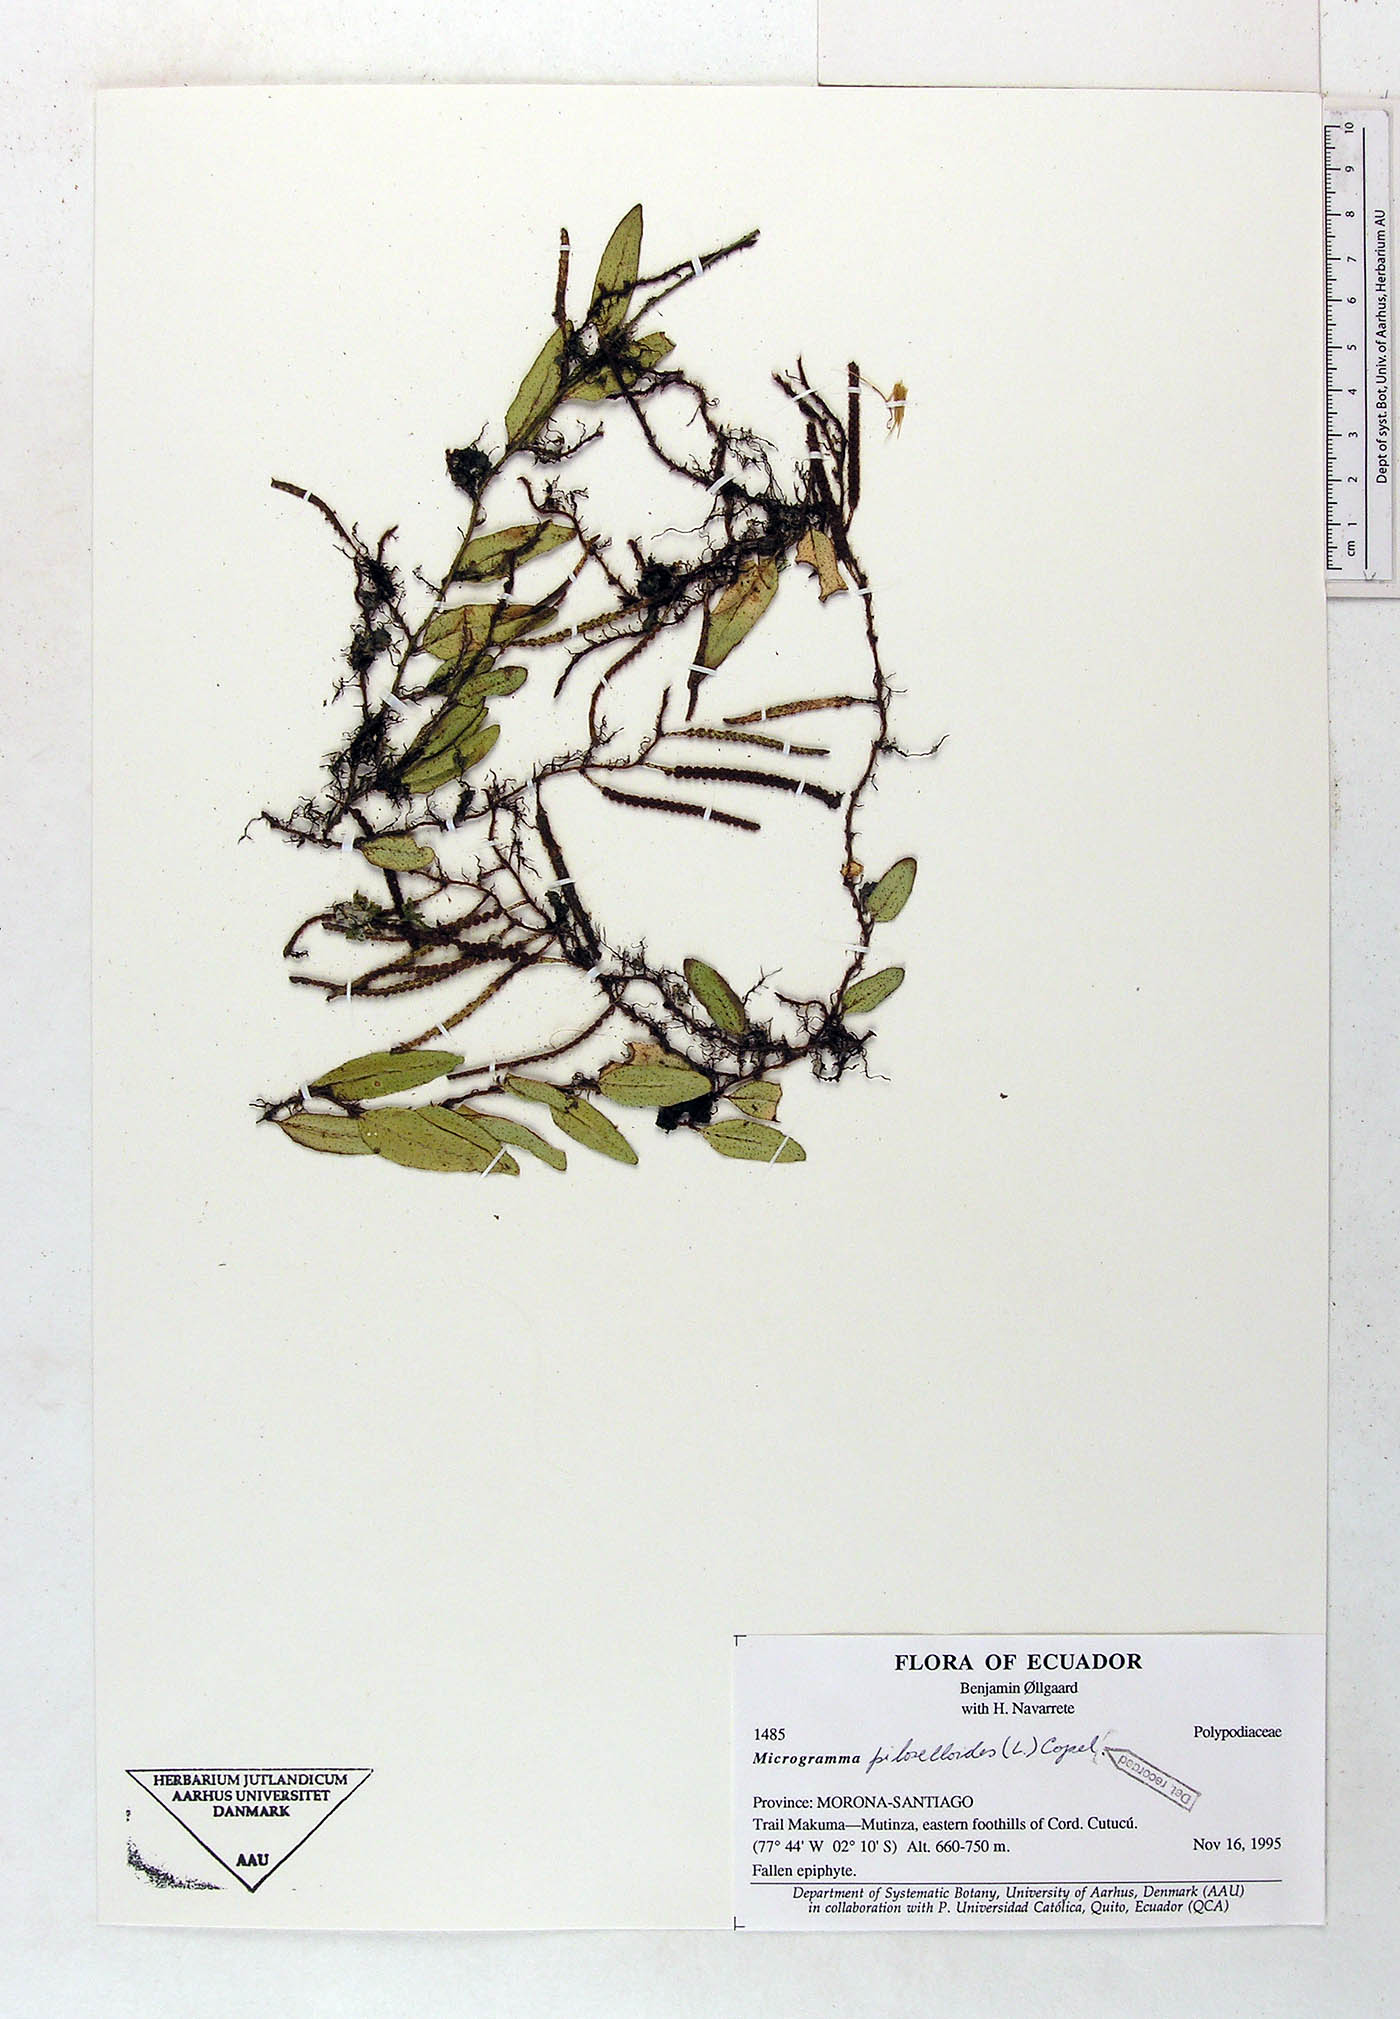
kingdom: Plantae
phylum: Tracheophyta
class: Polypodiopsida
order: Polypodiales
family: Polypodiaceae
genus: Microgramma
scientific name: Microgramma piloselloides
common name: Hairy snakefern
